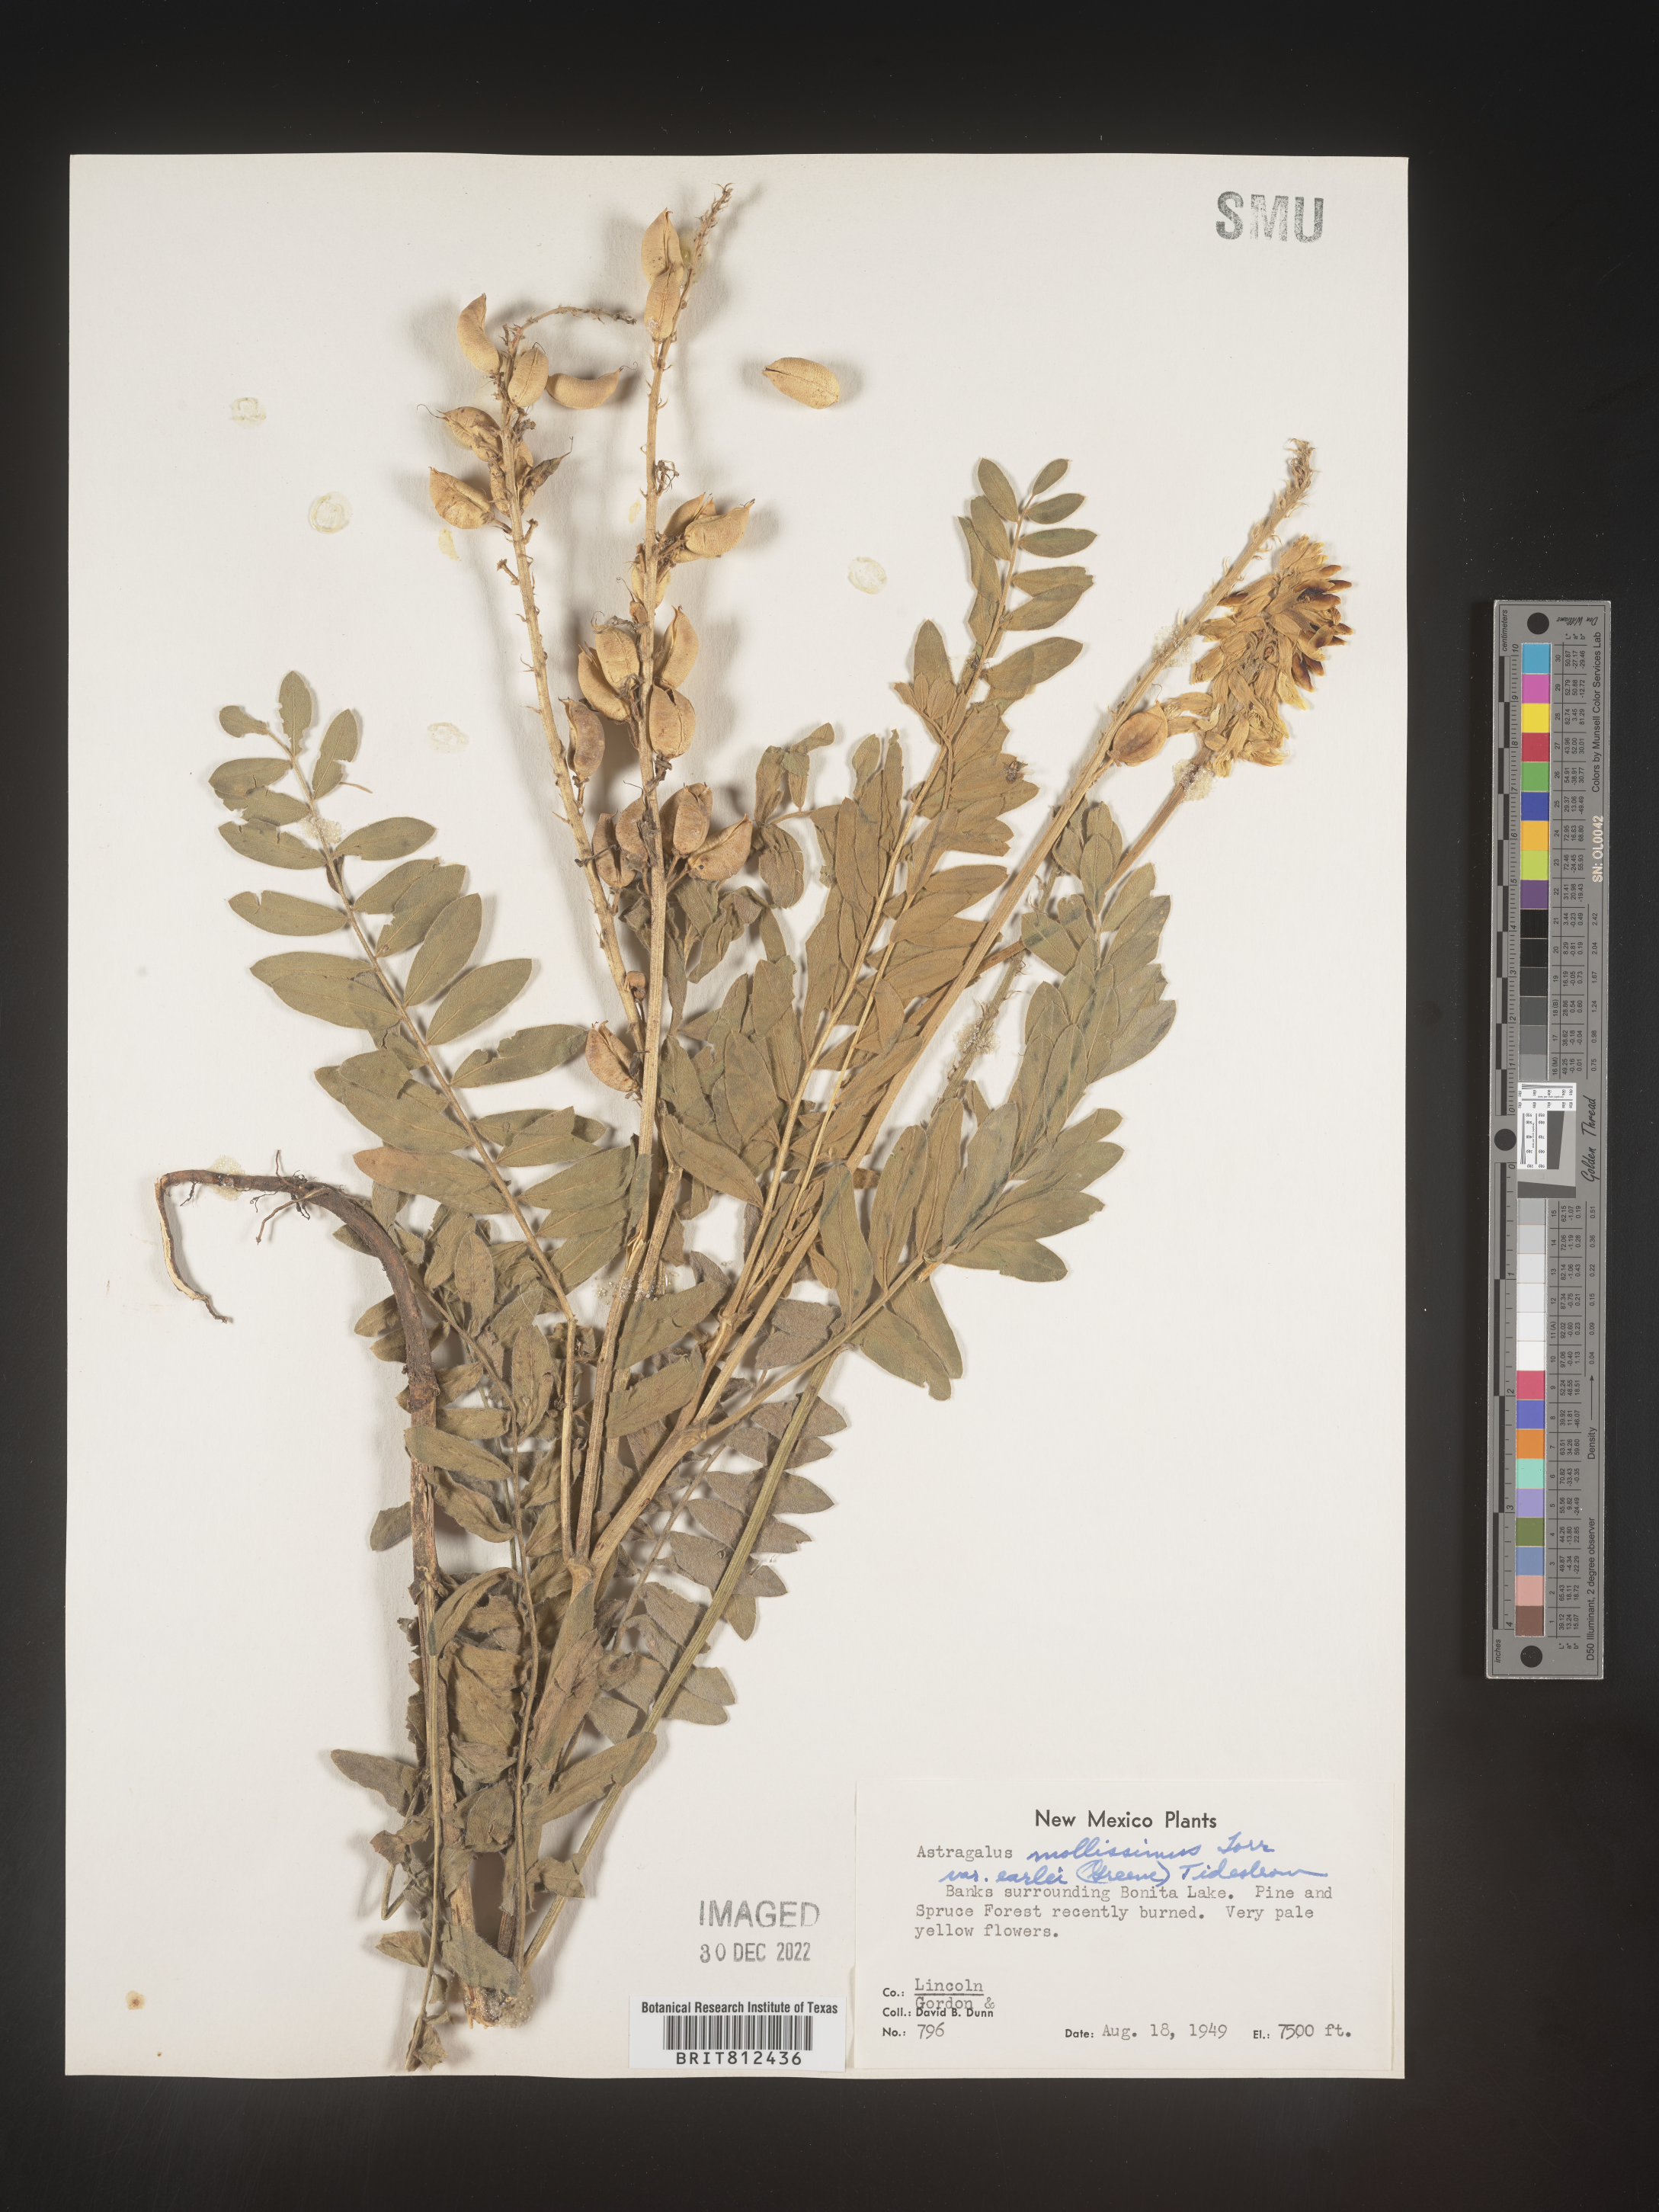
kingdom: Plantae
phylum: Tracheophyta
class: Magnoliopsida
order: Fabales
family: Fabaceae
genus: Astragalus
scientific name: Astragalus
